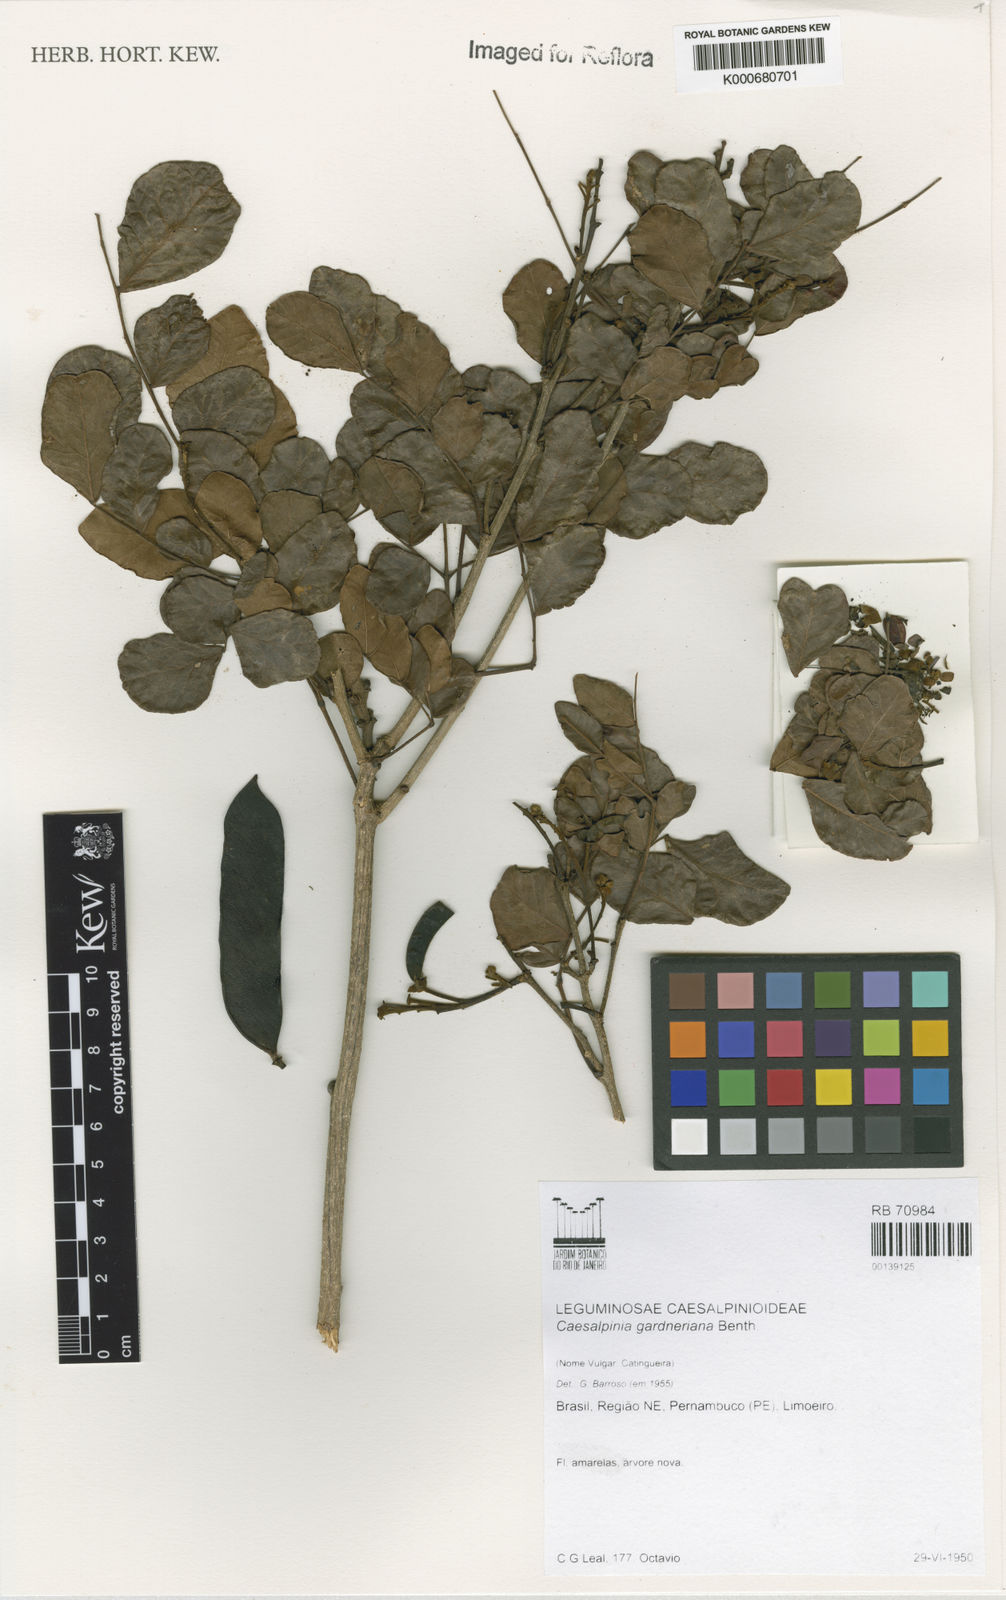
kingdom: Plantae
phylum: Tracheophyta
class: Magnoliopsida
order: Fabales
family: Fabaceae
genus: Cenostigma
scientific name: Cenostigma nordestinum
